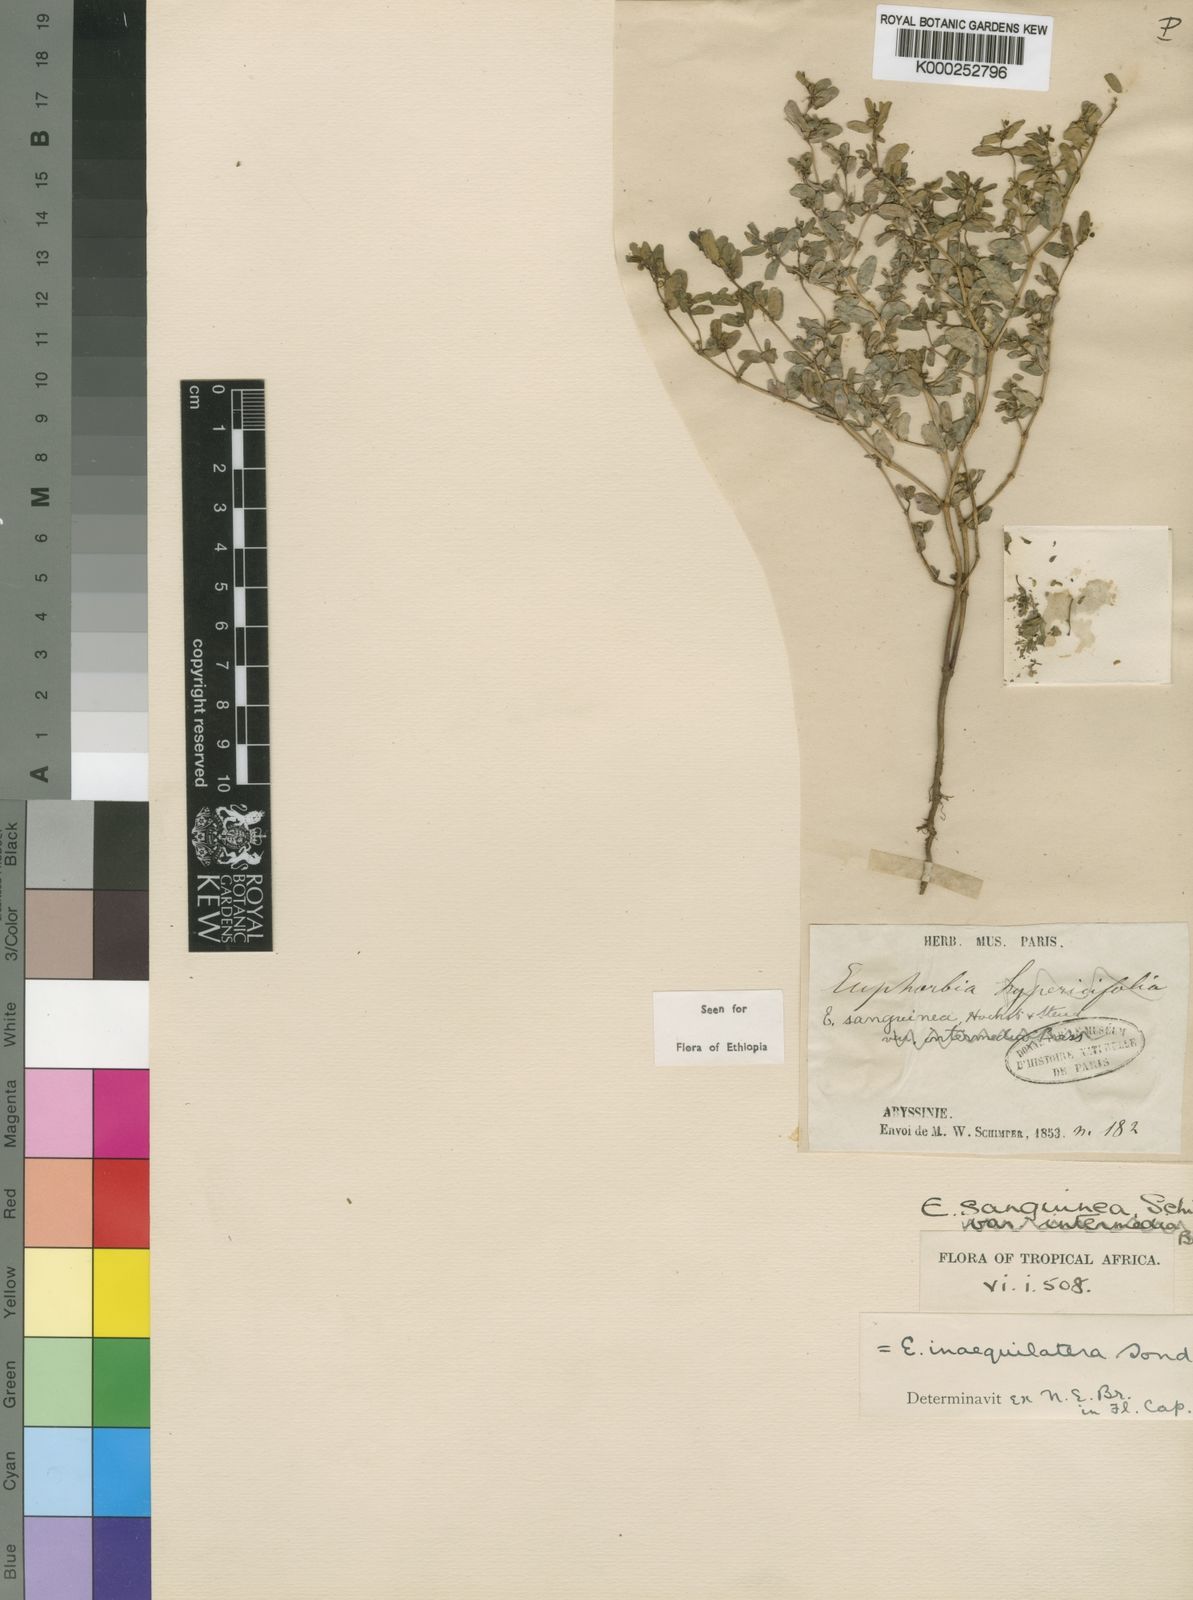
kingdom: Plantae
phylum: Tracheophyta
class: Magnoliopsida
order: Malpighiales
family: Euphorbiaceae
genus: Euphorbia
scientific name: Euphorbia inaequilatera
